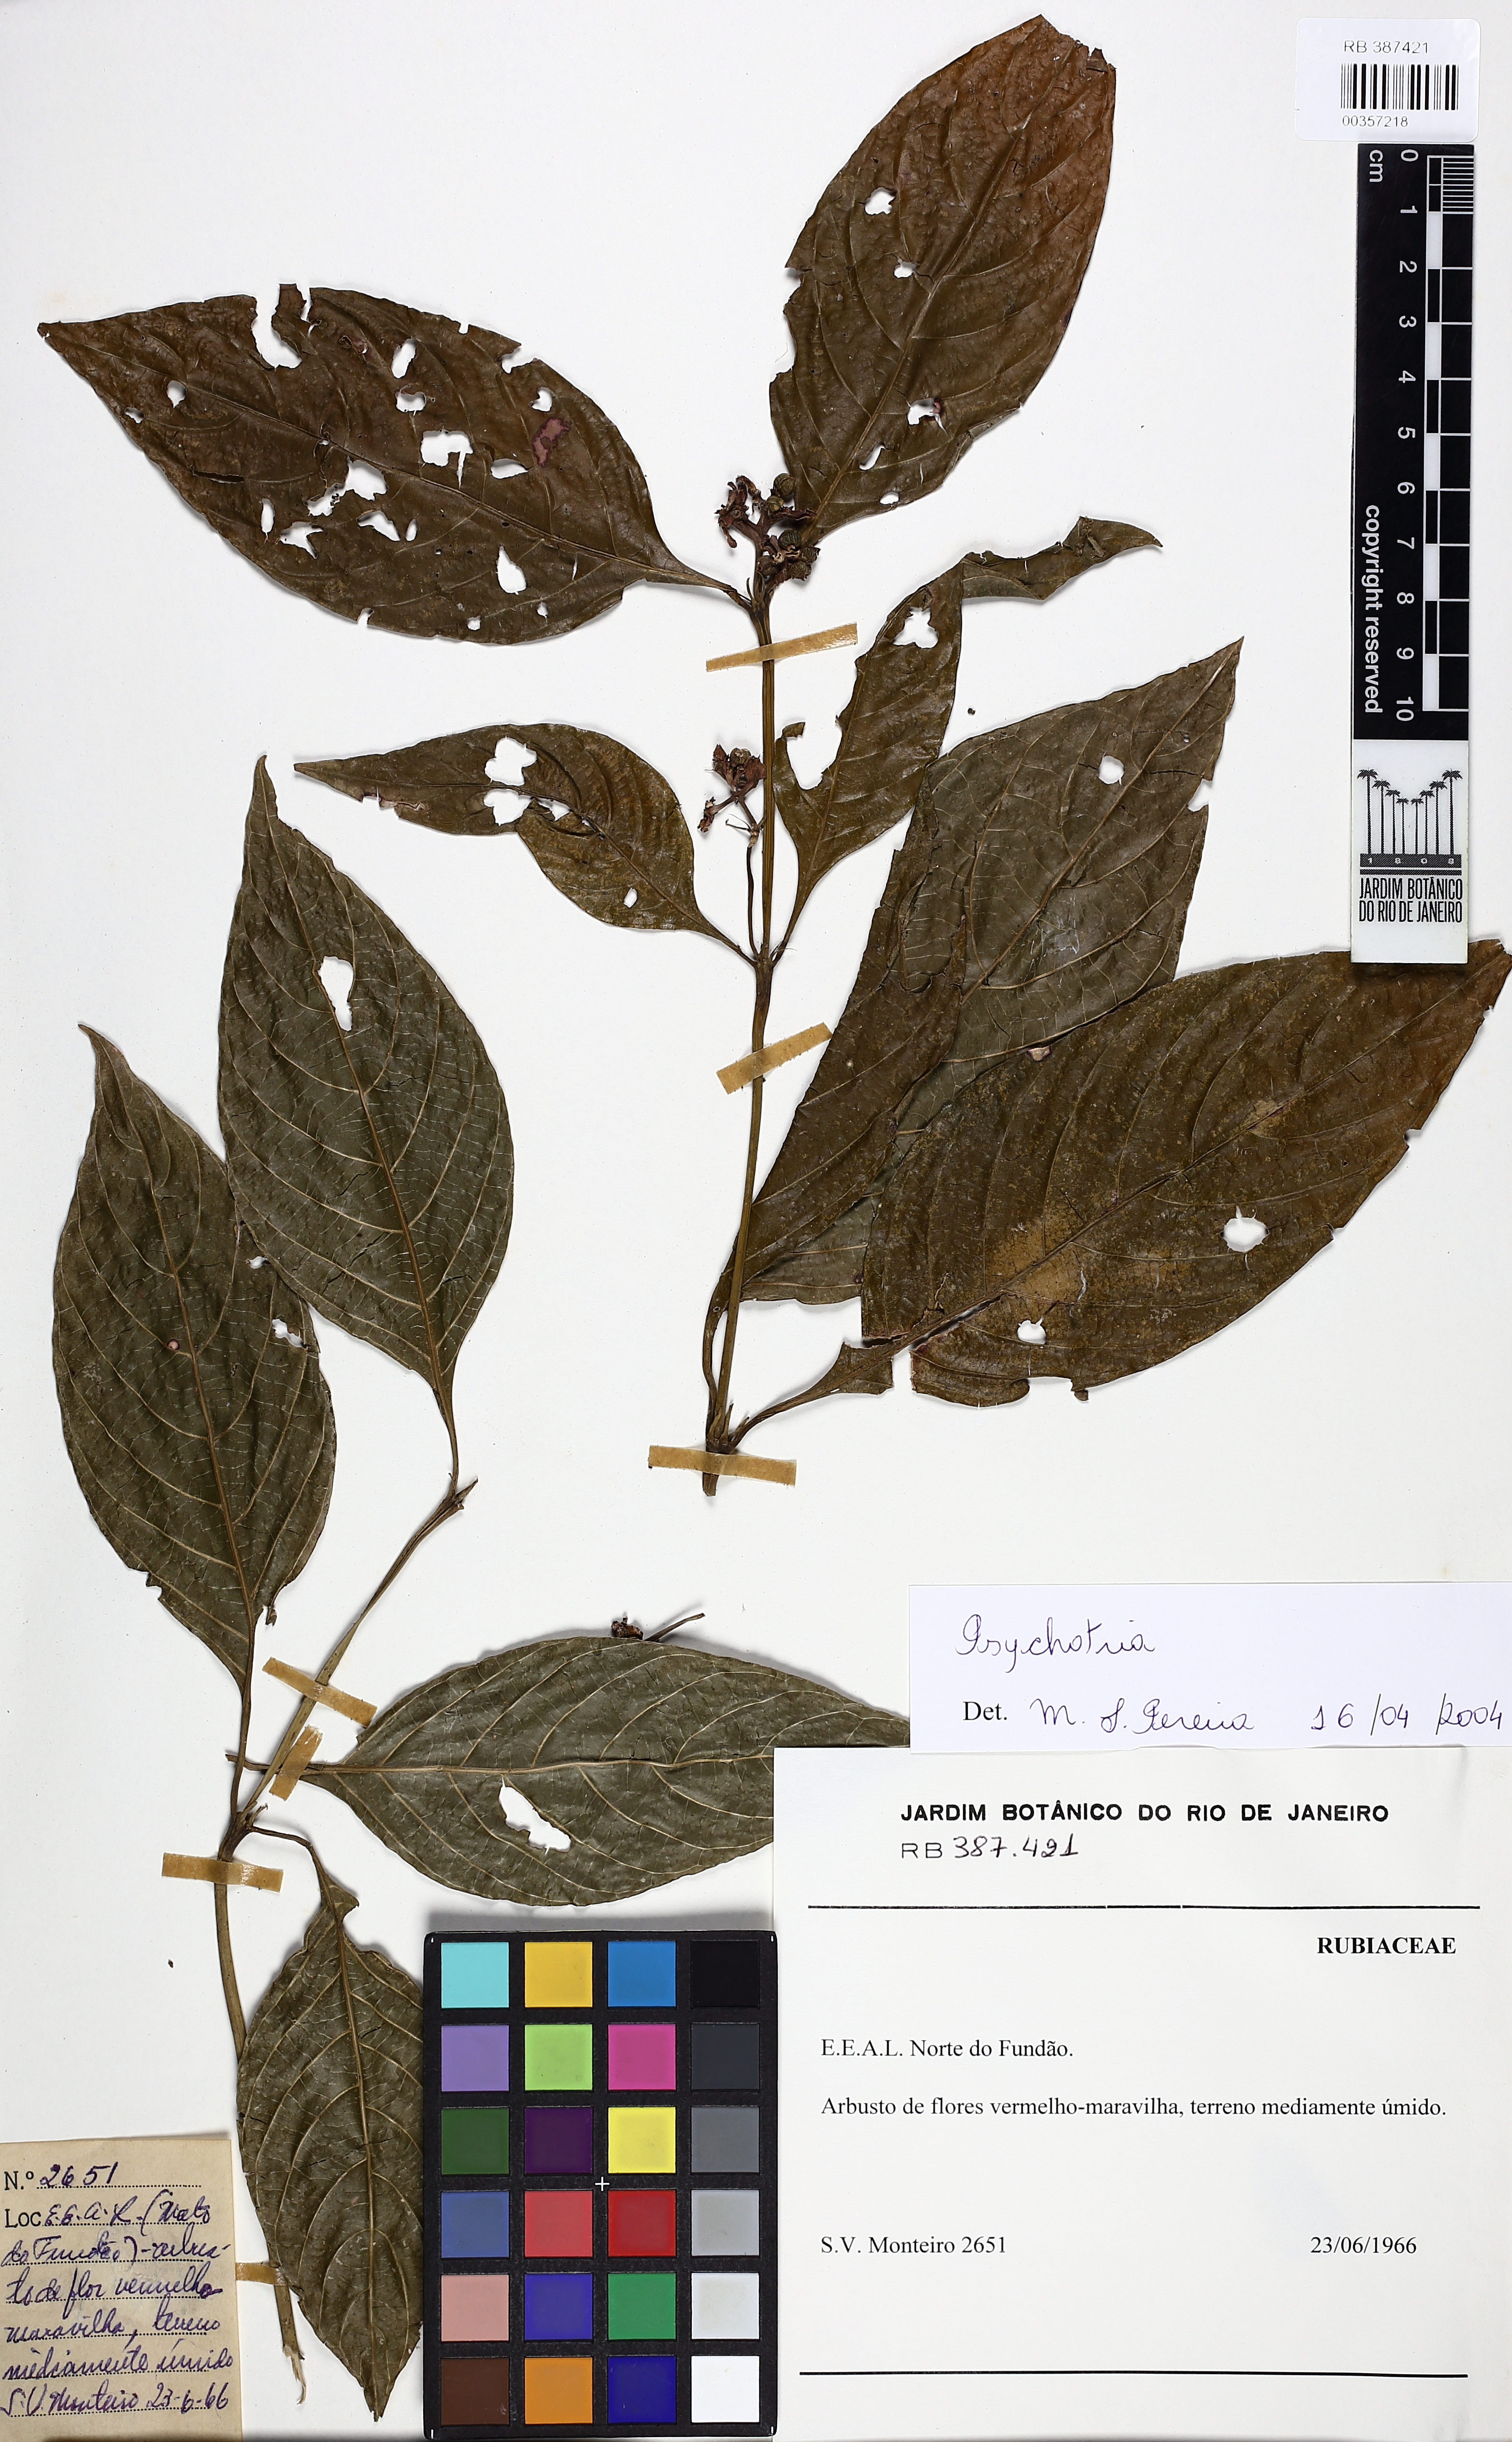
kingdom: Plantae
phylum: Tracheophyta
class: Magnoliopsida
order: Gentianales
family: Rubiaceae
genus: Palicourea
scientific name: Palicourea hoffmannseggiana
